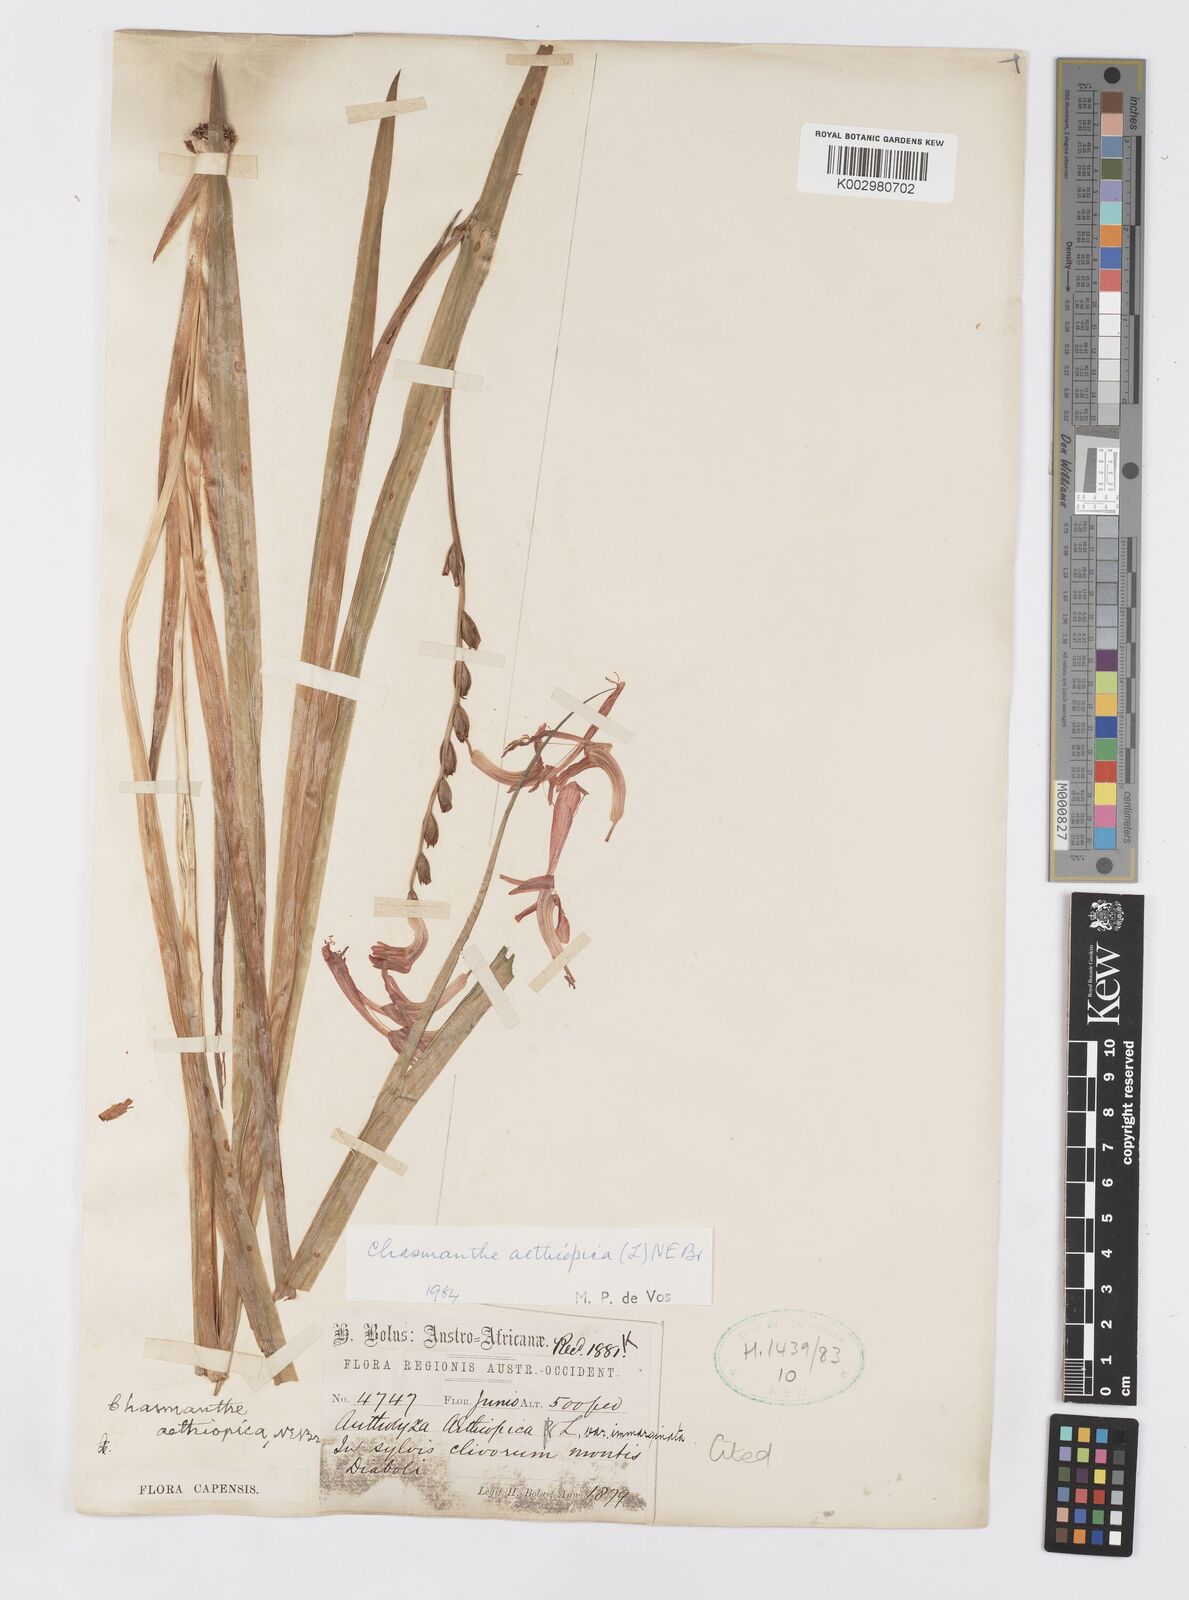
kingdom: Plantae
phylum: Tracheophyta
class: Liliopsida
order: Asparagales
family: Iridaceae
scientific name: Iridaceae
